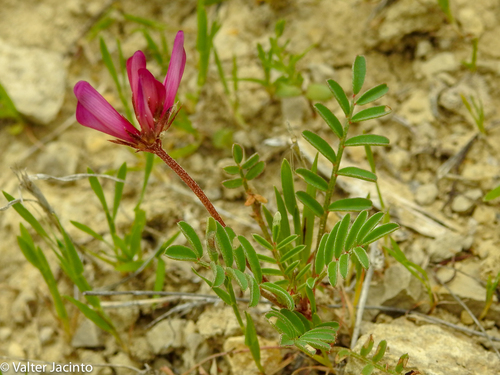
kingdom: Plantae
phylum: Tracheophyta
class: Magnoliopsida
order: Fabales
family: Fabaceae
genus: Sulla
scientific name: Sulla glomerata
